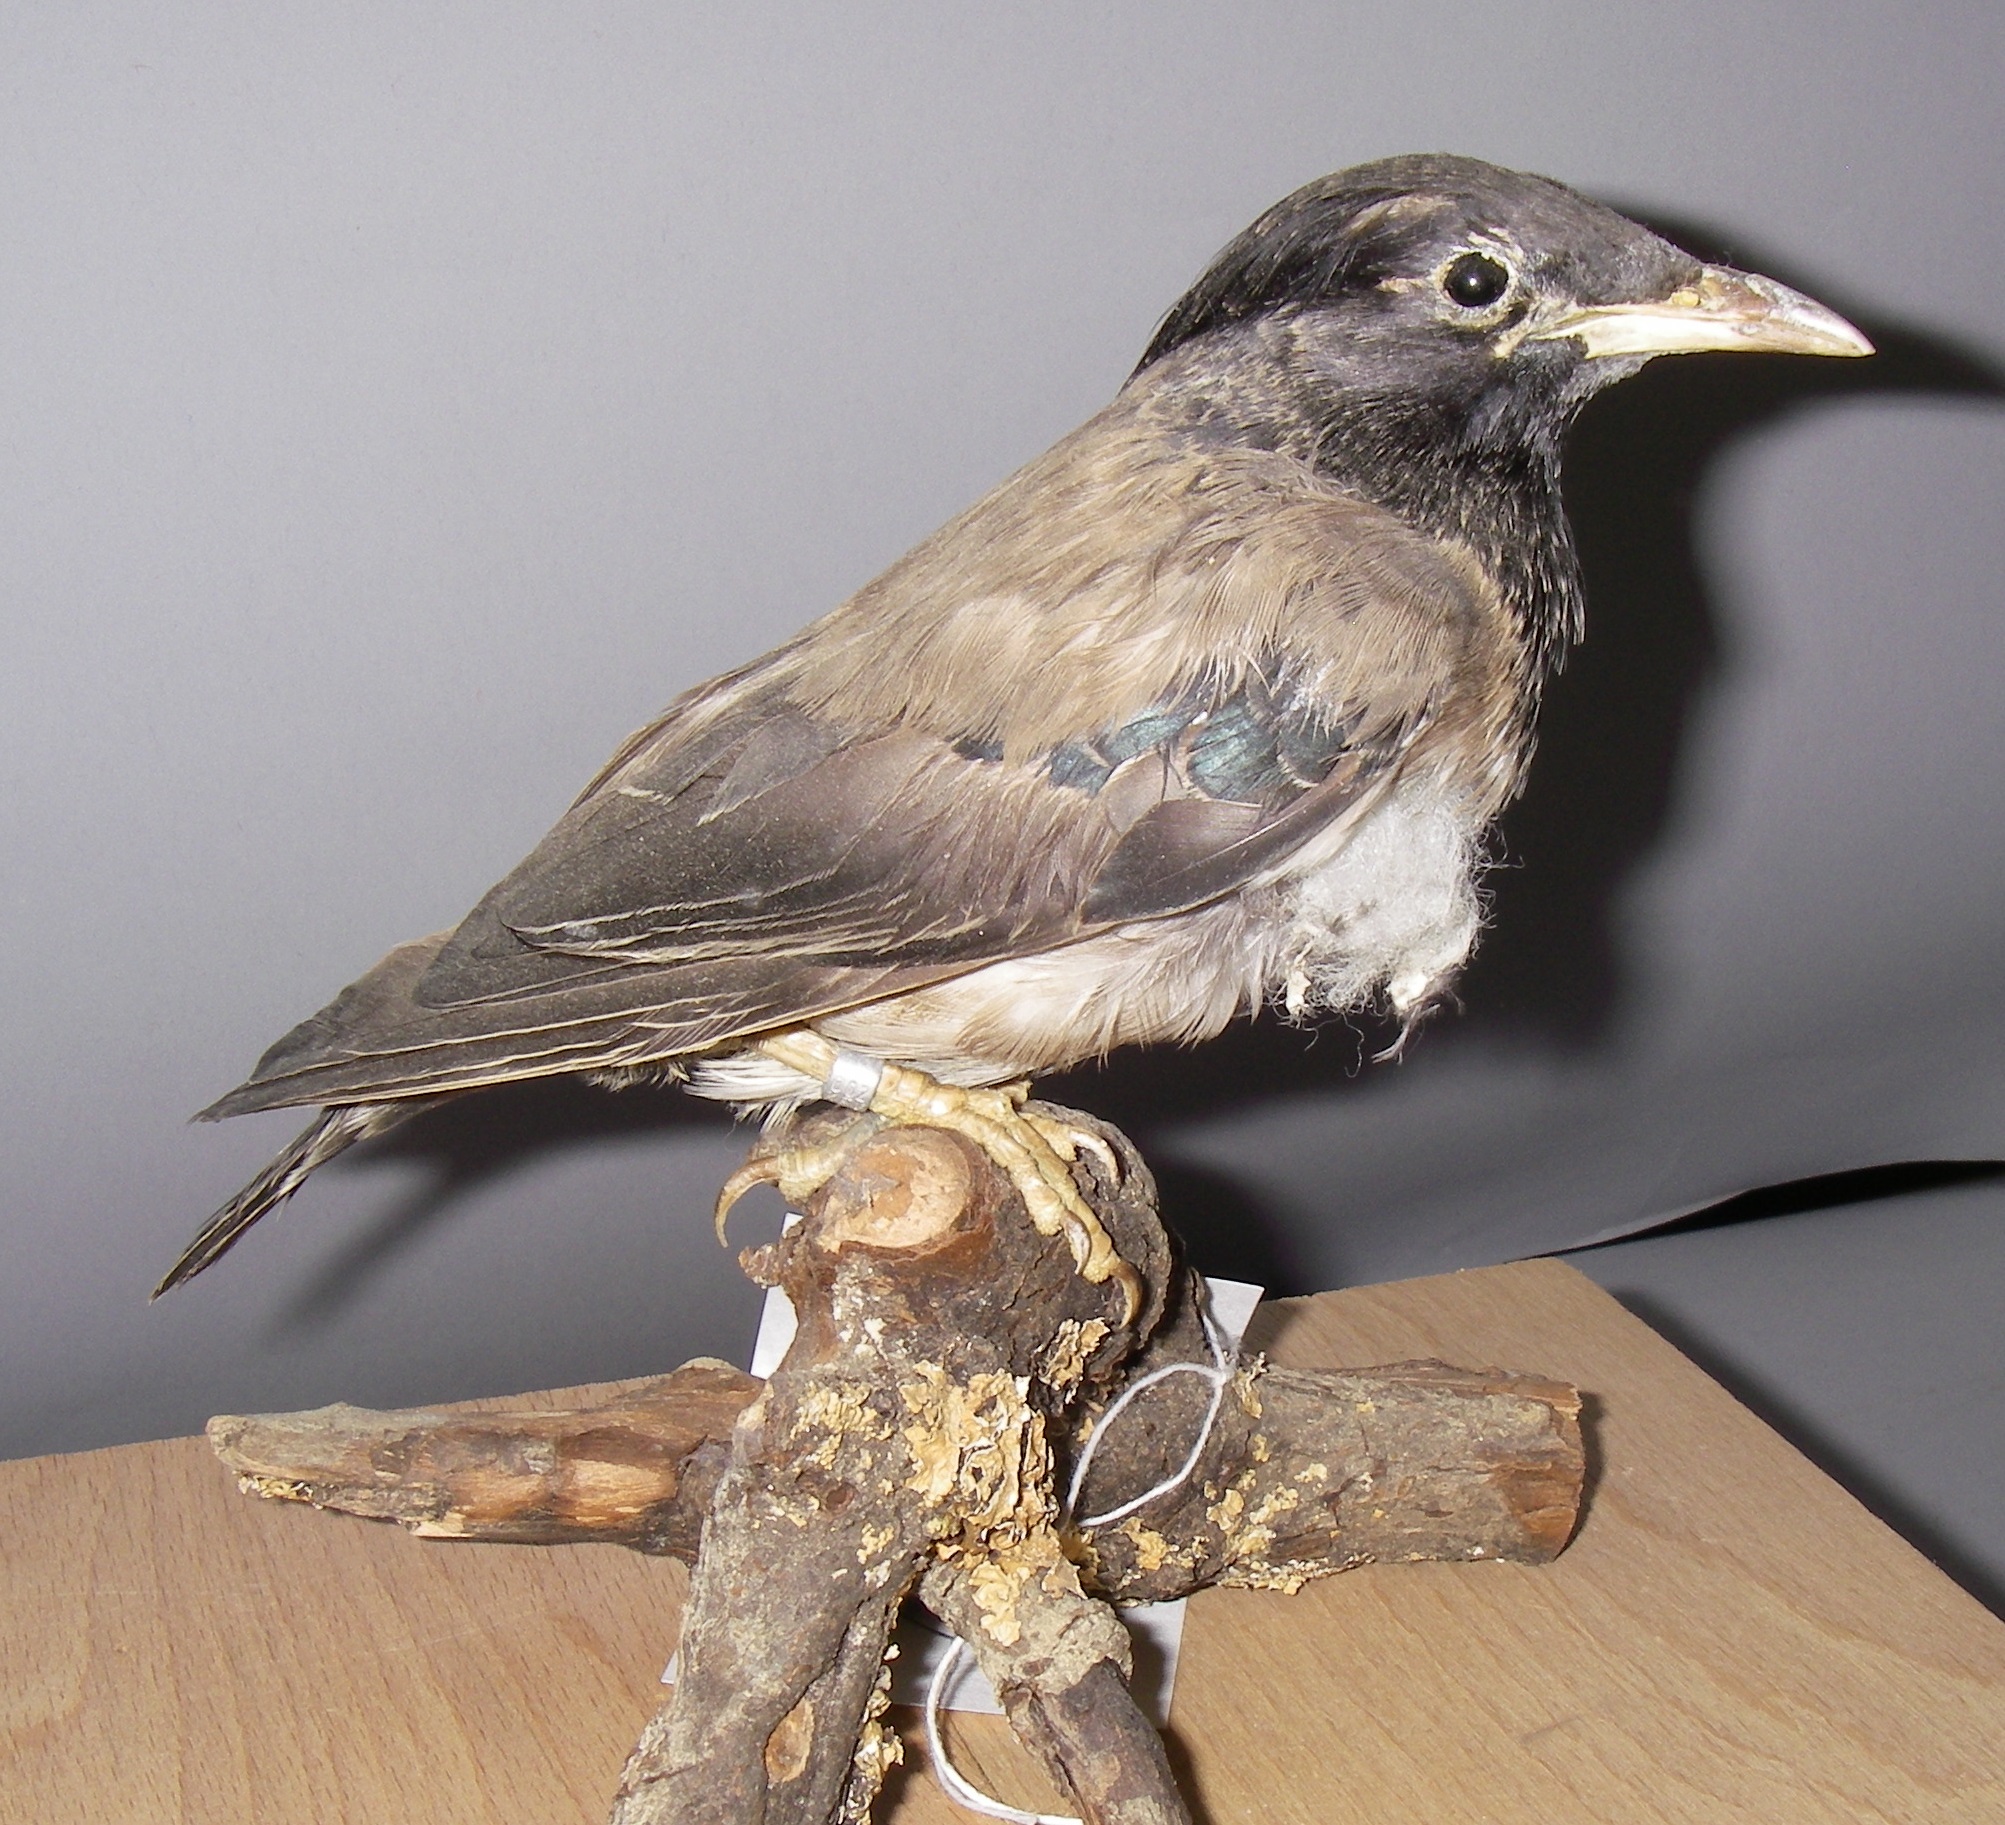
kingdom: Animalia
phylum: Chordata
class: Aves
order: Passeriformes
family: Sturnidae
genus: Pastor
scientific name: Pastor roseus
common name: Rosy starling
